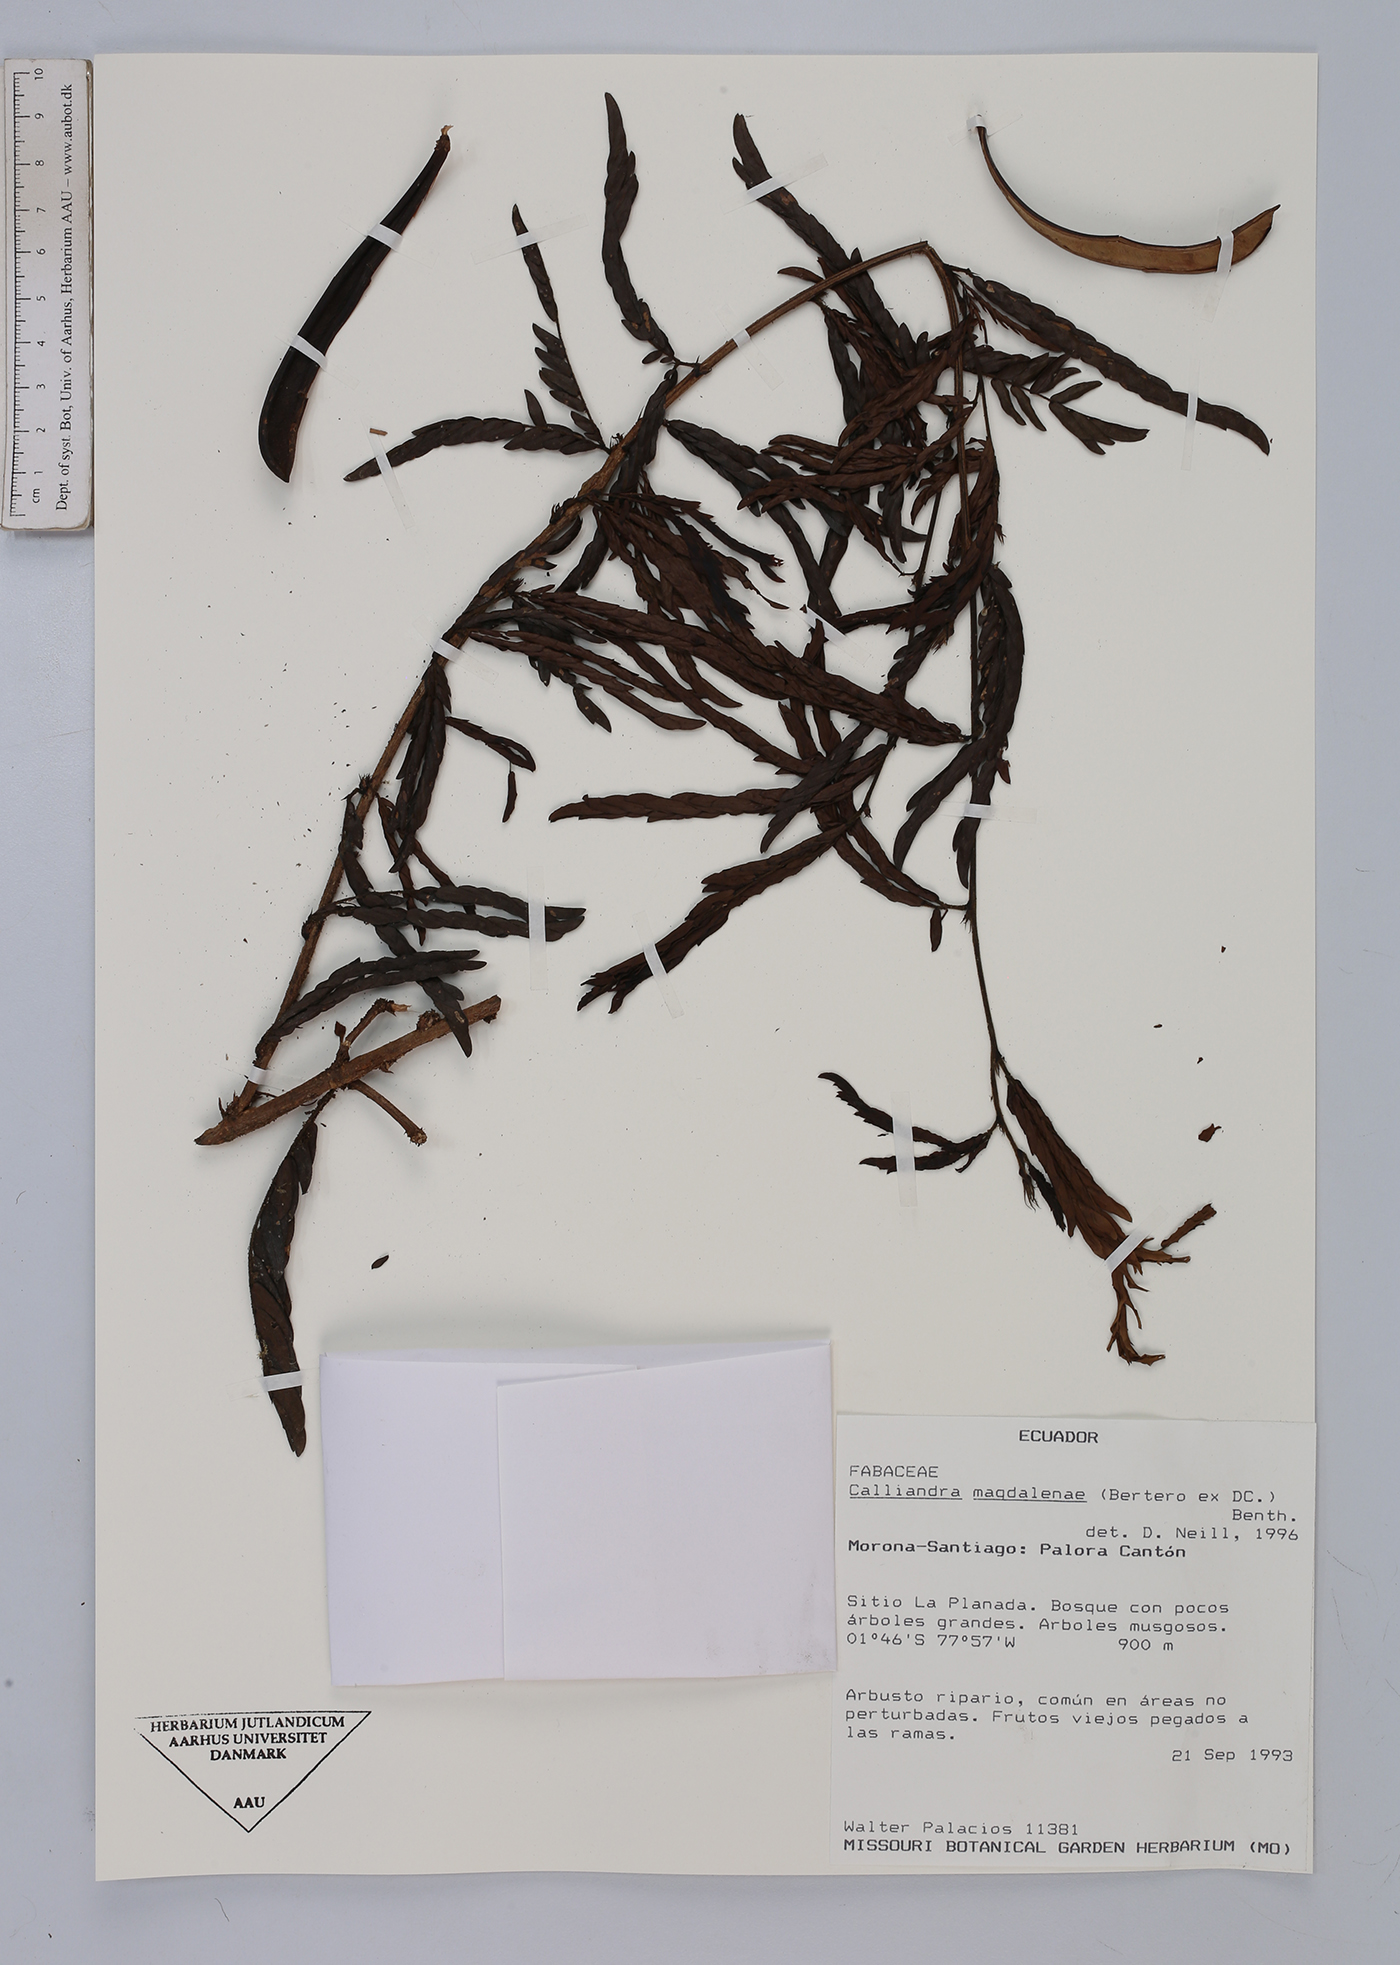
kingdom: Plantae
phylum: Tracheophyta
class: Magnoliopsida
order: Fabales
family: Fabaceae
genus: Calliandra
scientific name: Calliandra magdalenae
